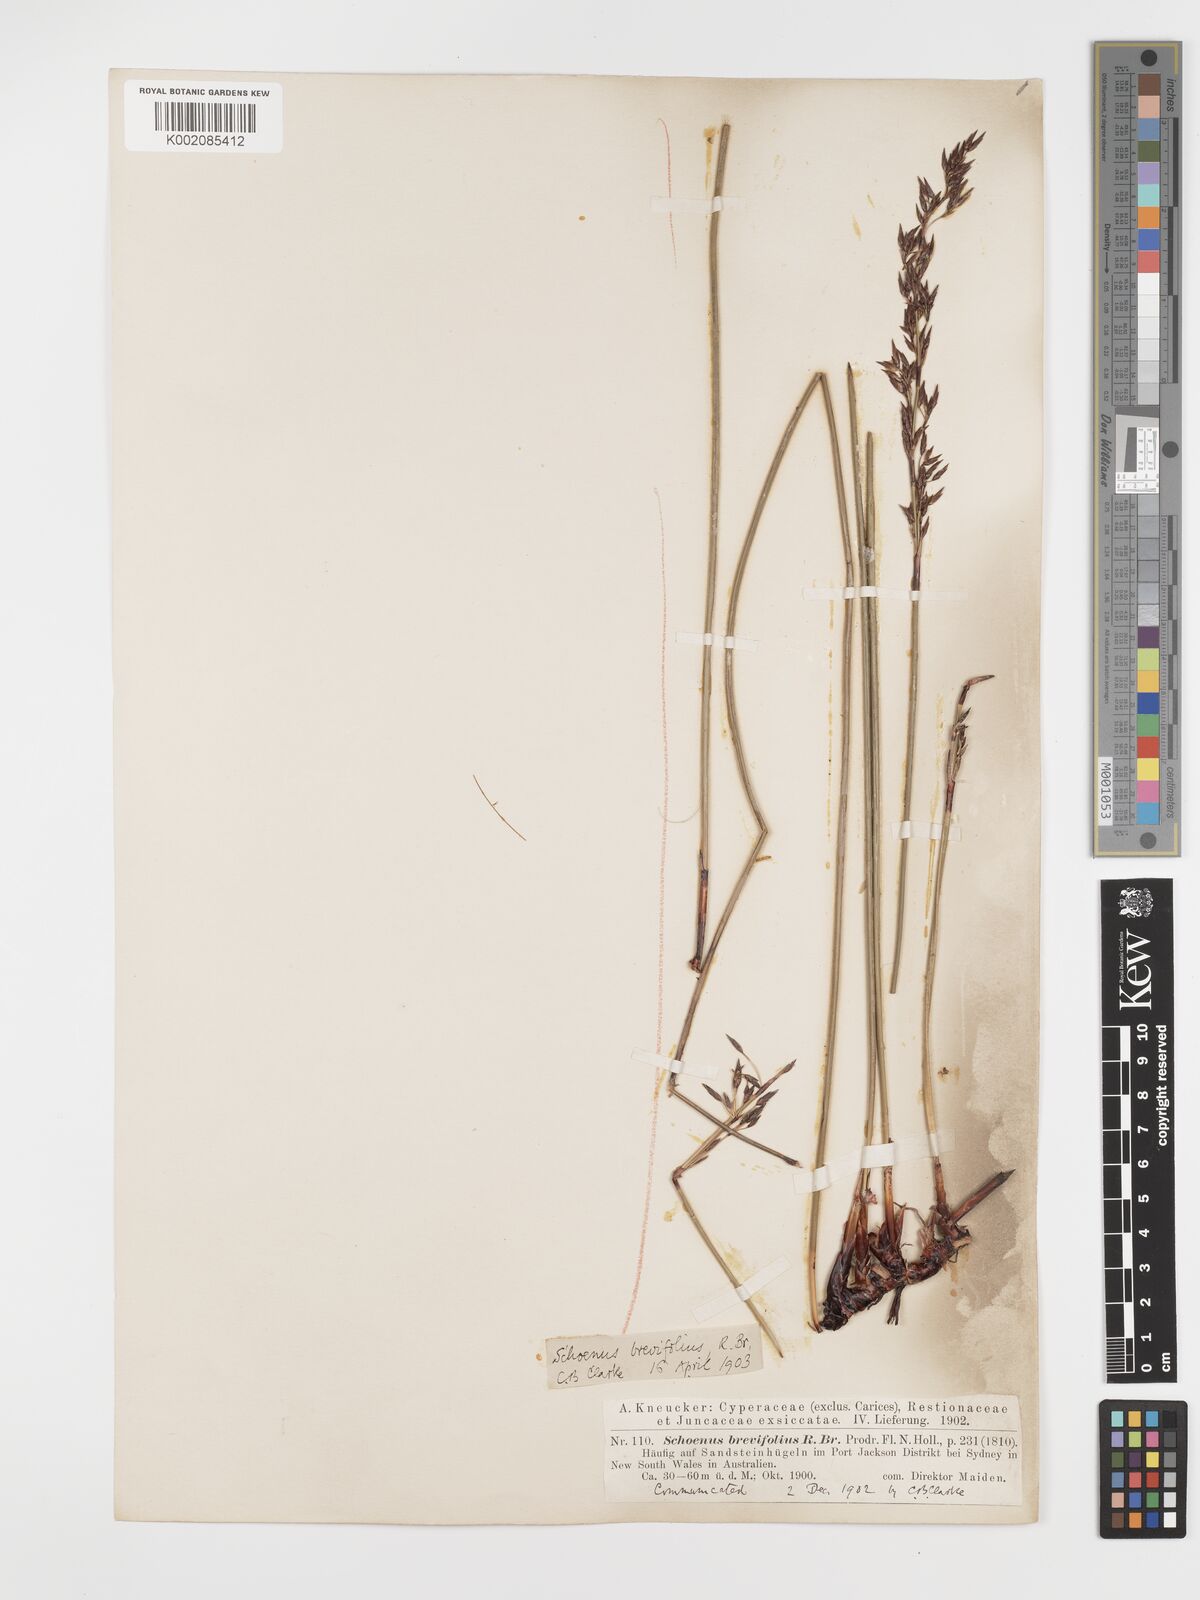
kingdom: Plantae
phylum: Tracheophyta
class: Liliopsida
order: Poales
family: Cyperaceae
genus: Schoenus
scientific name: Schoenus brevifolius
